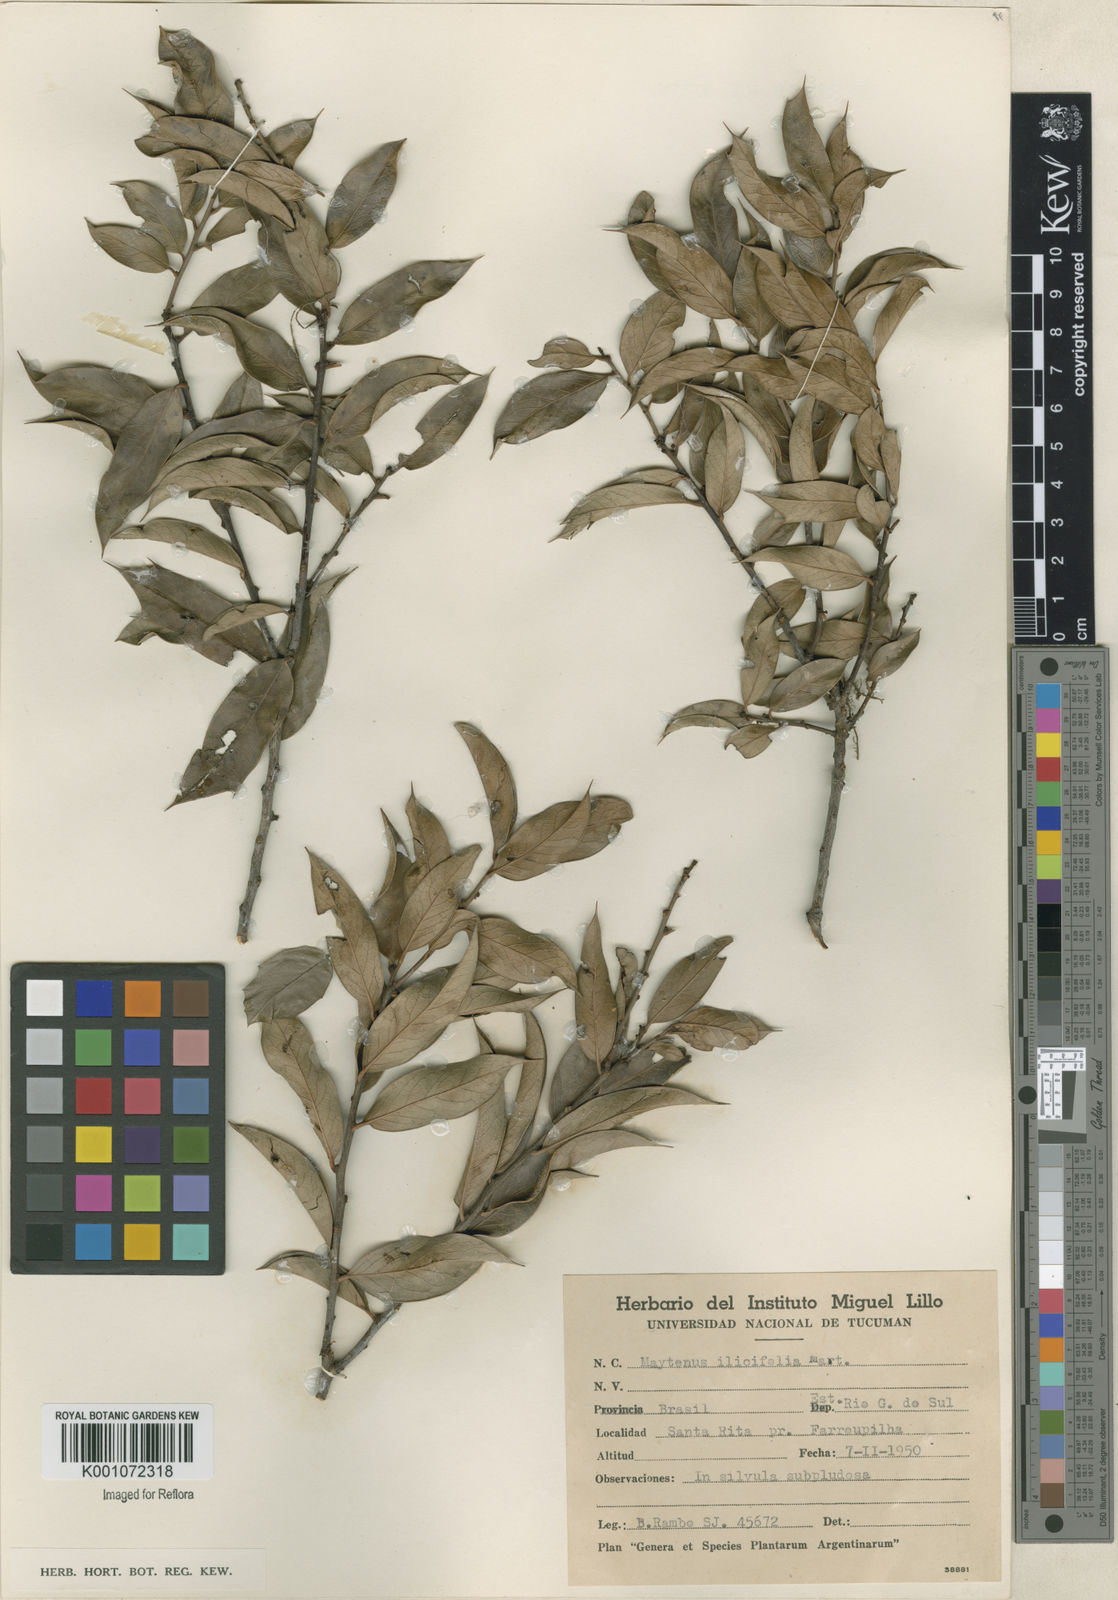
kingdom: Plantae
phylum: Tracheophyta
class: Magnoliopsida
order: Celastrales
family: Celastraceae
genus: Monteverdia
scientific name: Monteverdia ilicifolia
